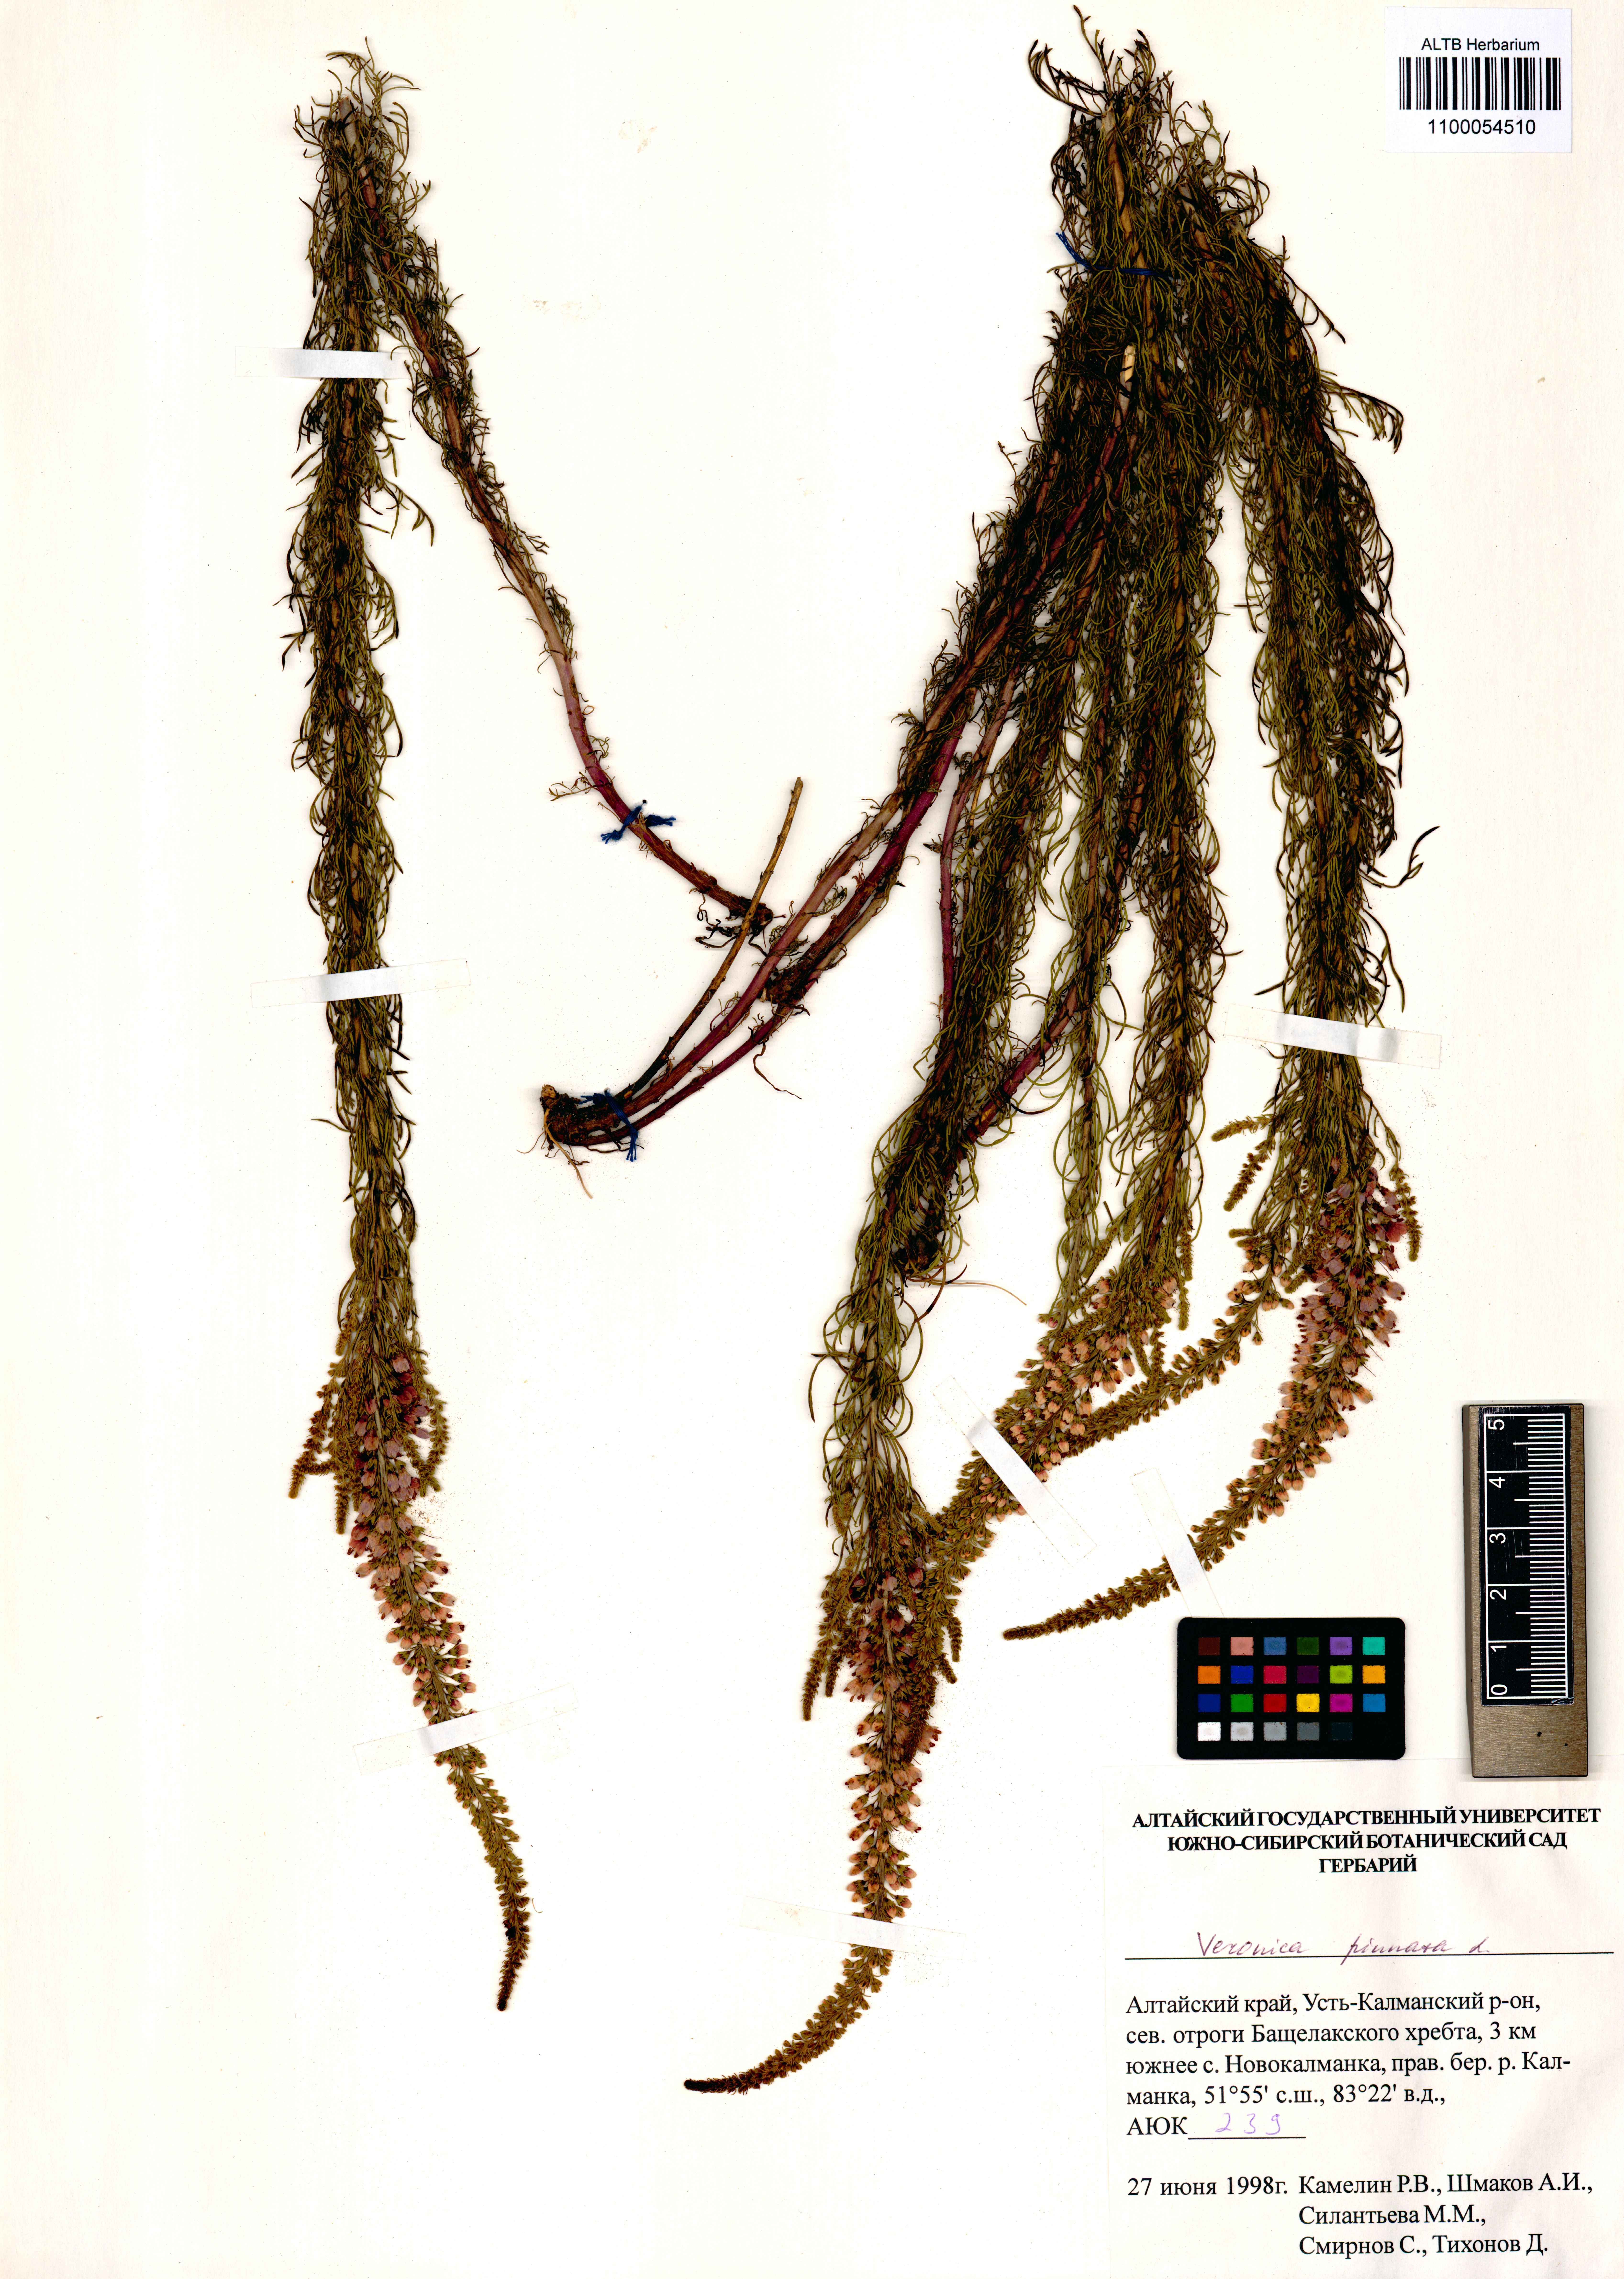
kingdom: Plantae
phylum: Tracheophyta
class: Magnoliopsida
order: Lamiales
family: Plantaginaceae
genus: Veronica
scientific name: Veronica pinnata
